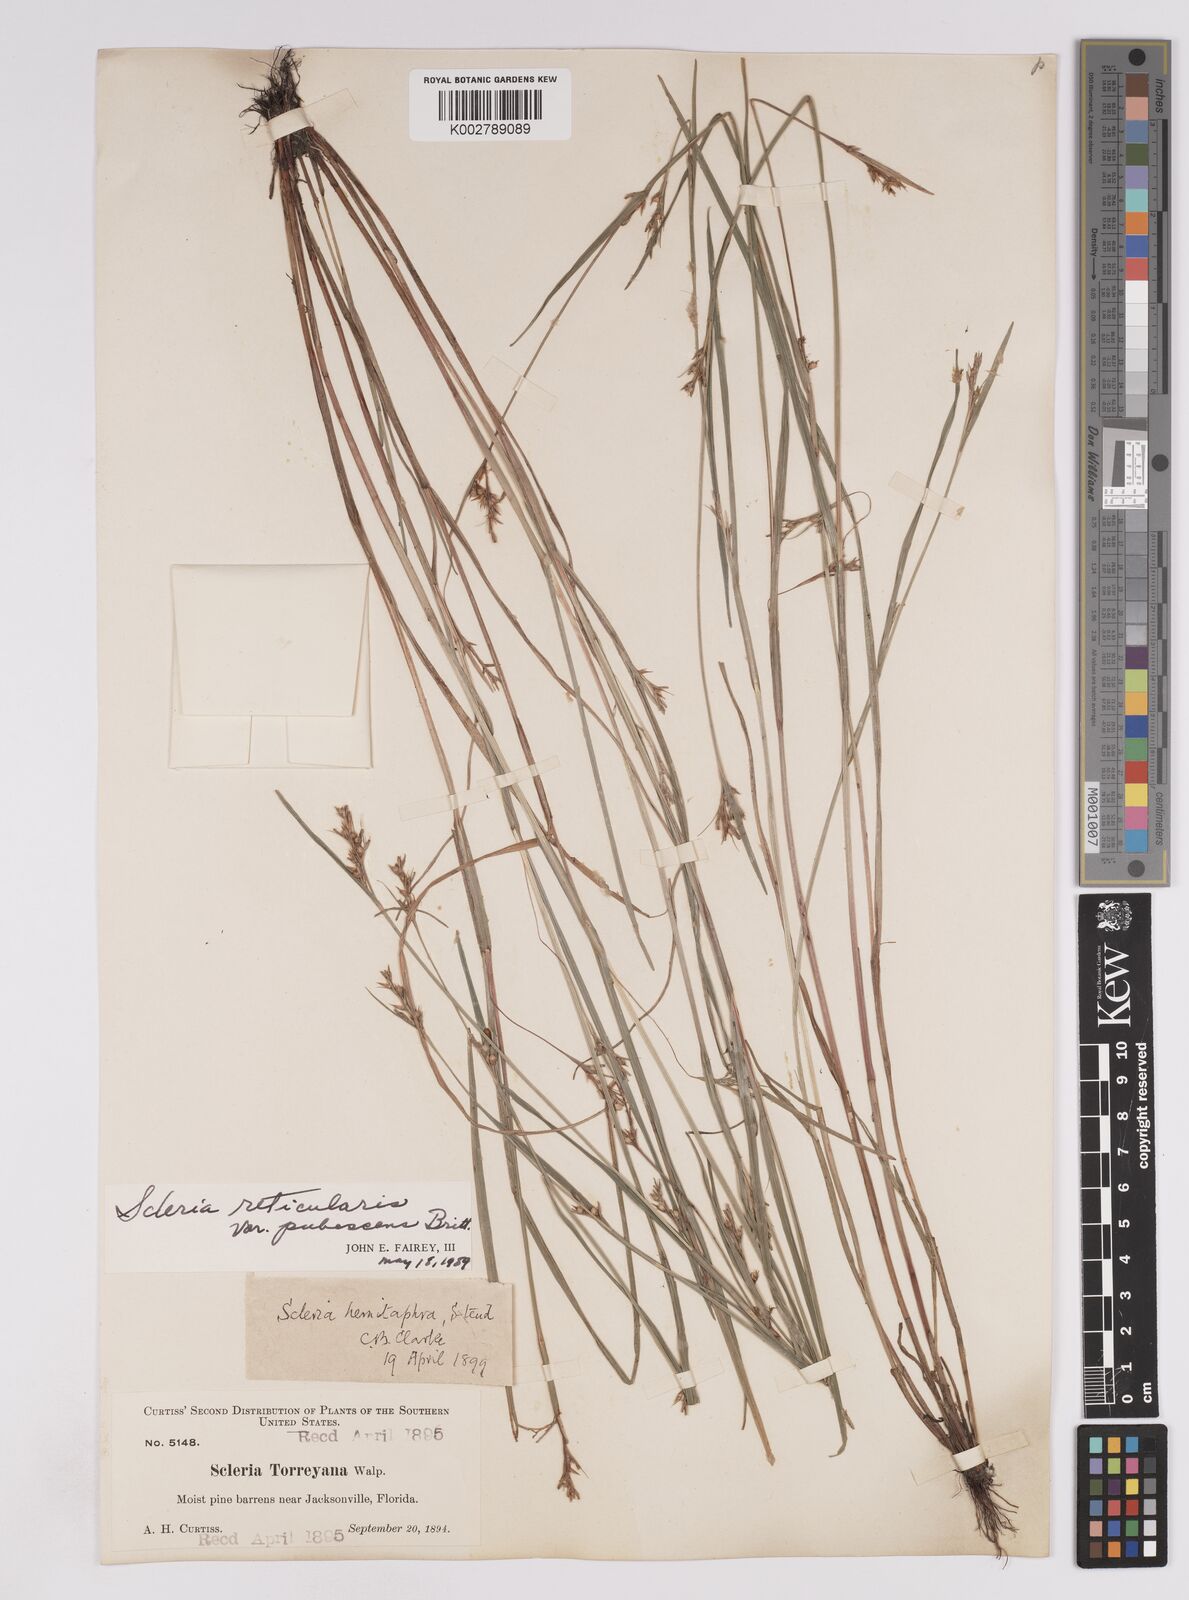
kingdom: Plantae
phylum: Tracheophyta
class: Liliopsida
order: Poales
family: Cyperaceae
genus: Scleria
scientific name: Scleria muehlenbergii
